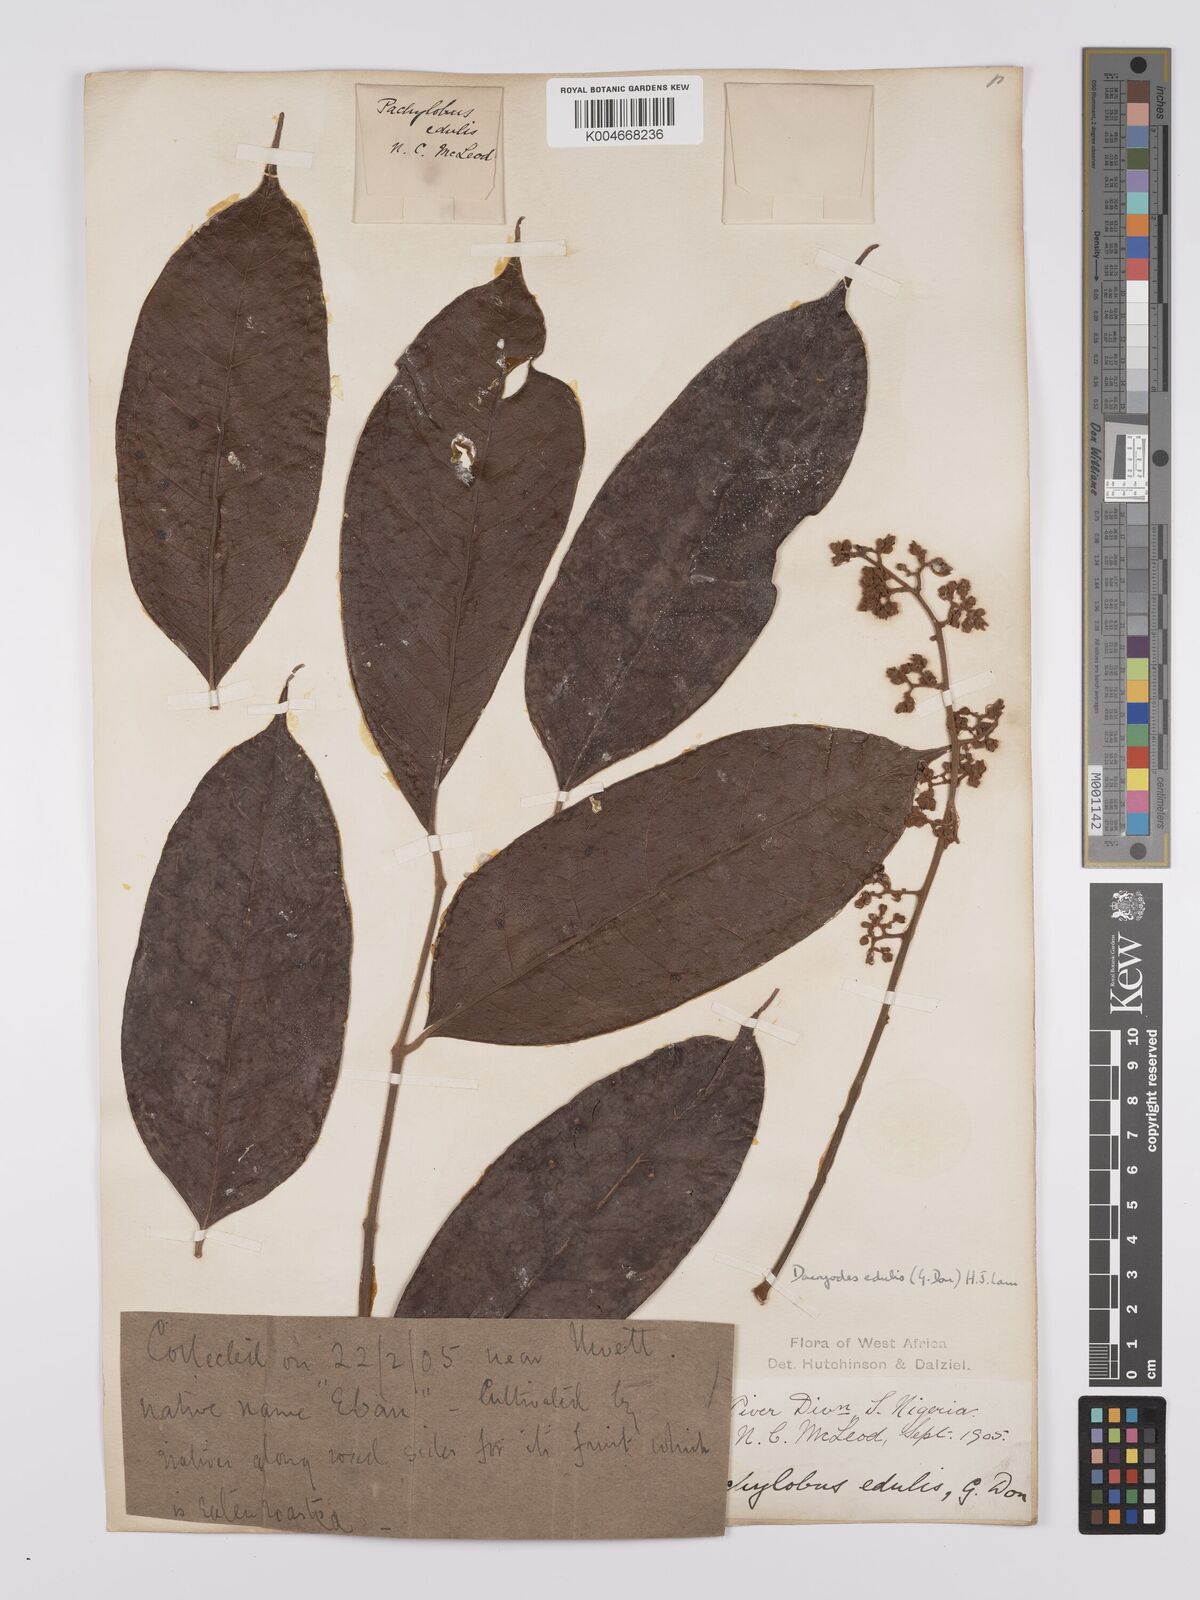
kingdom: Plantae
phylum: Tracheophyta
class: Magnoliopsida
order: Sapindales
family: Burseraceae
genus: Pachylobus
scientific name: Pachylobus edulis
